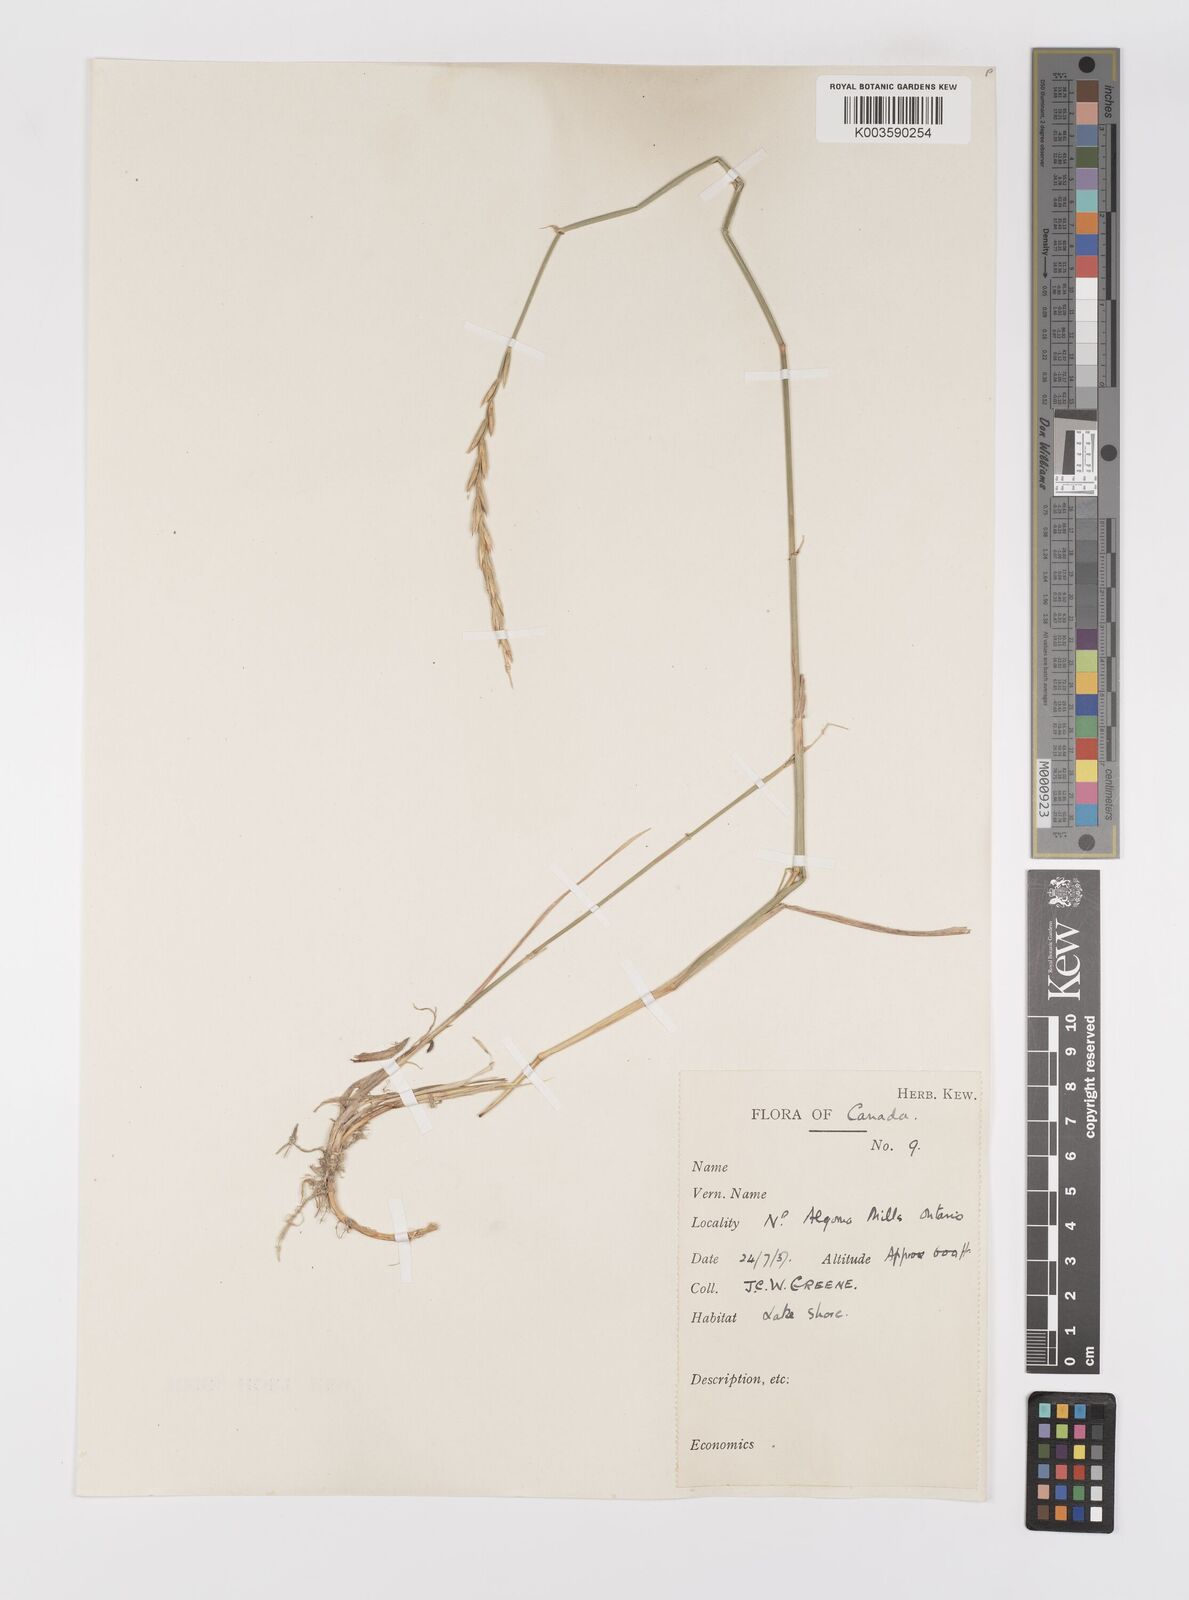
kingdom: Plantae
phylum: Tracheophyta
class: Liliopsida
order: Poales
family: Poaceae
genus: Elymus
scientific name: Elymus
